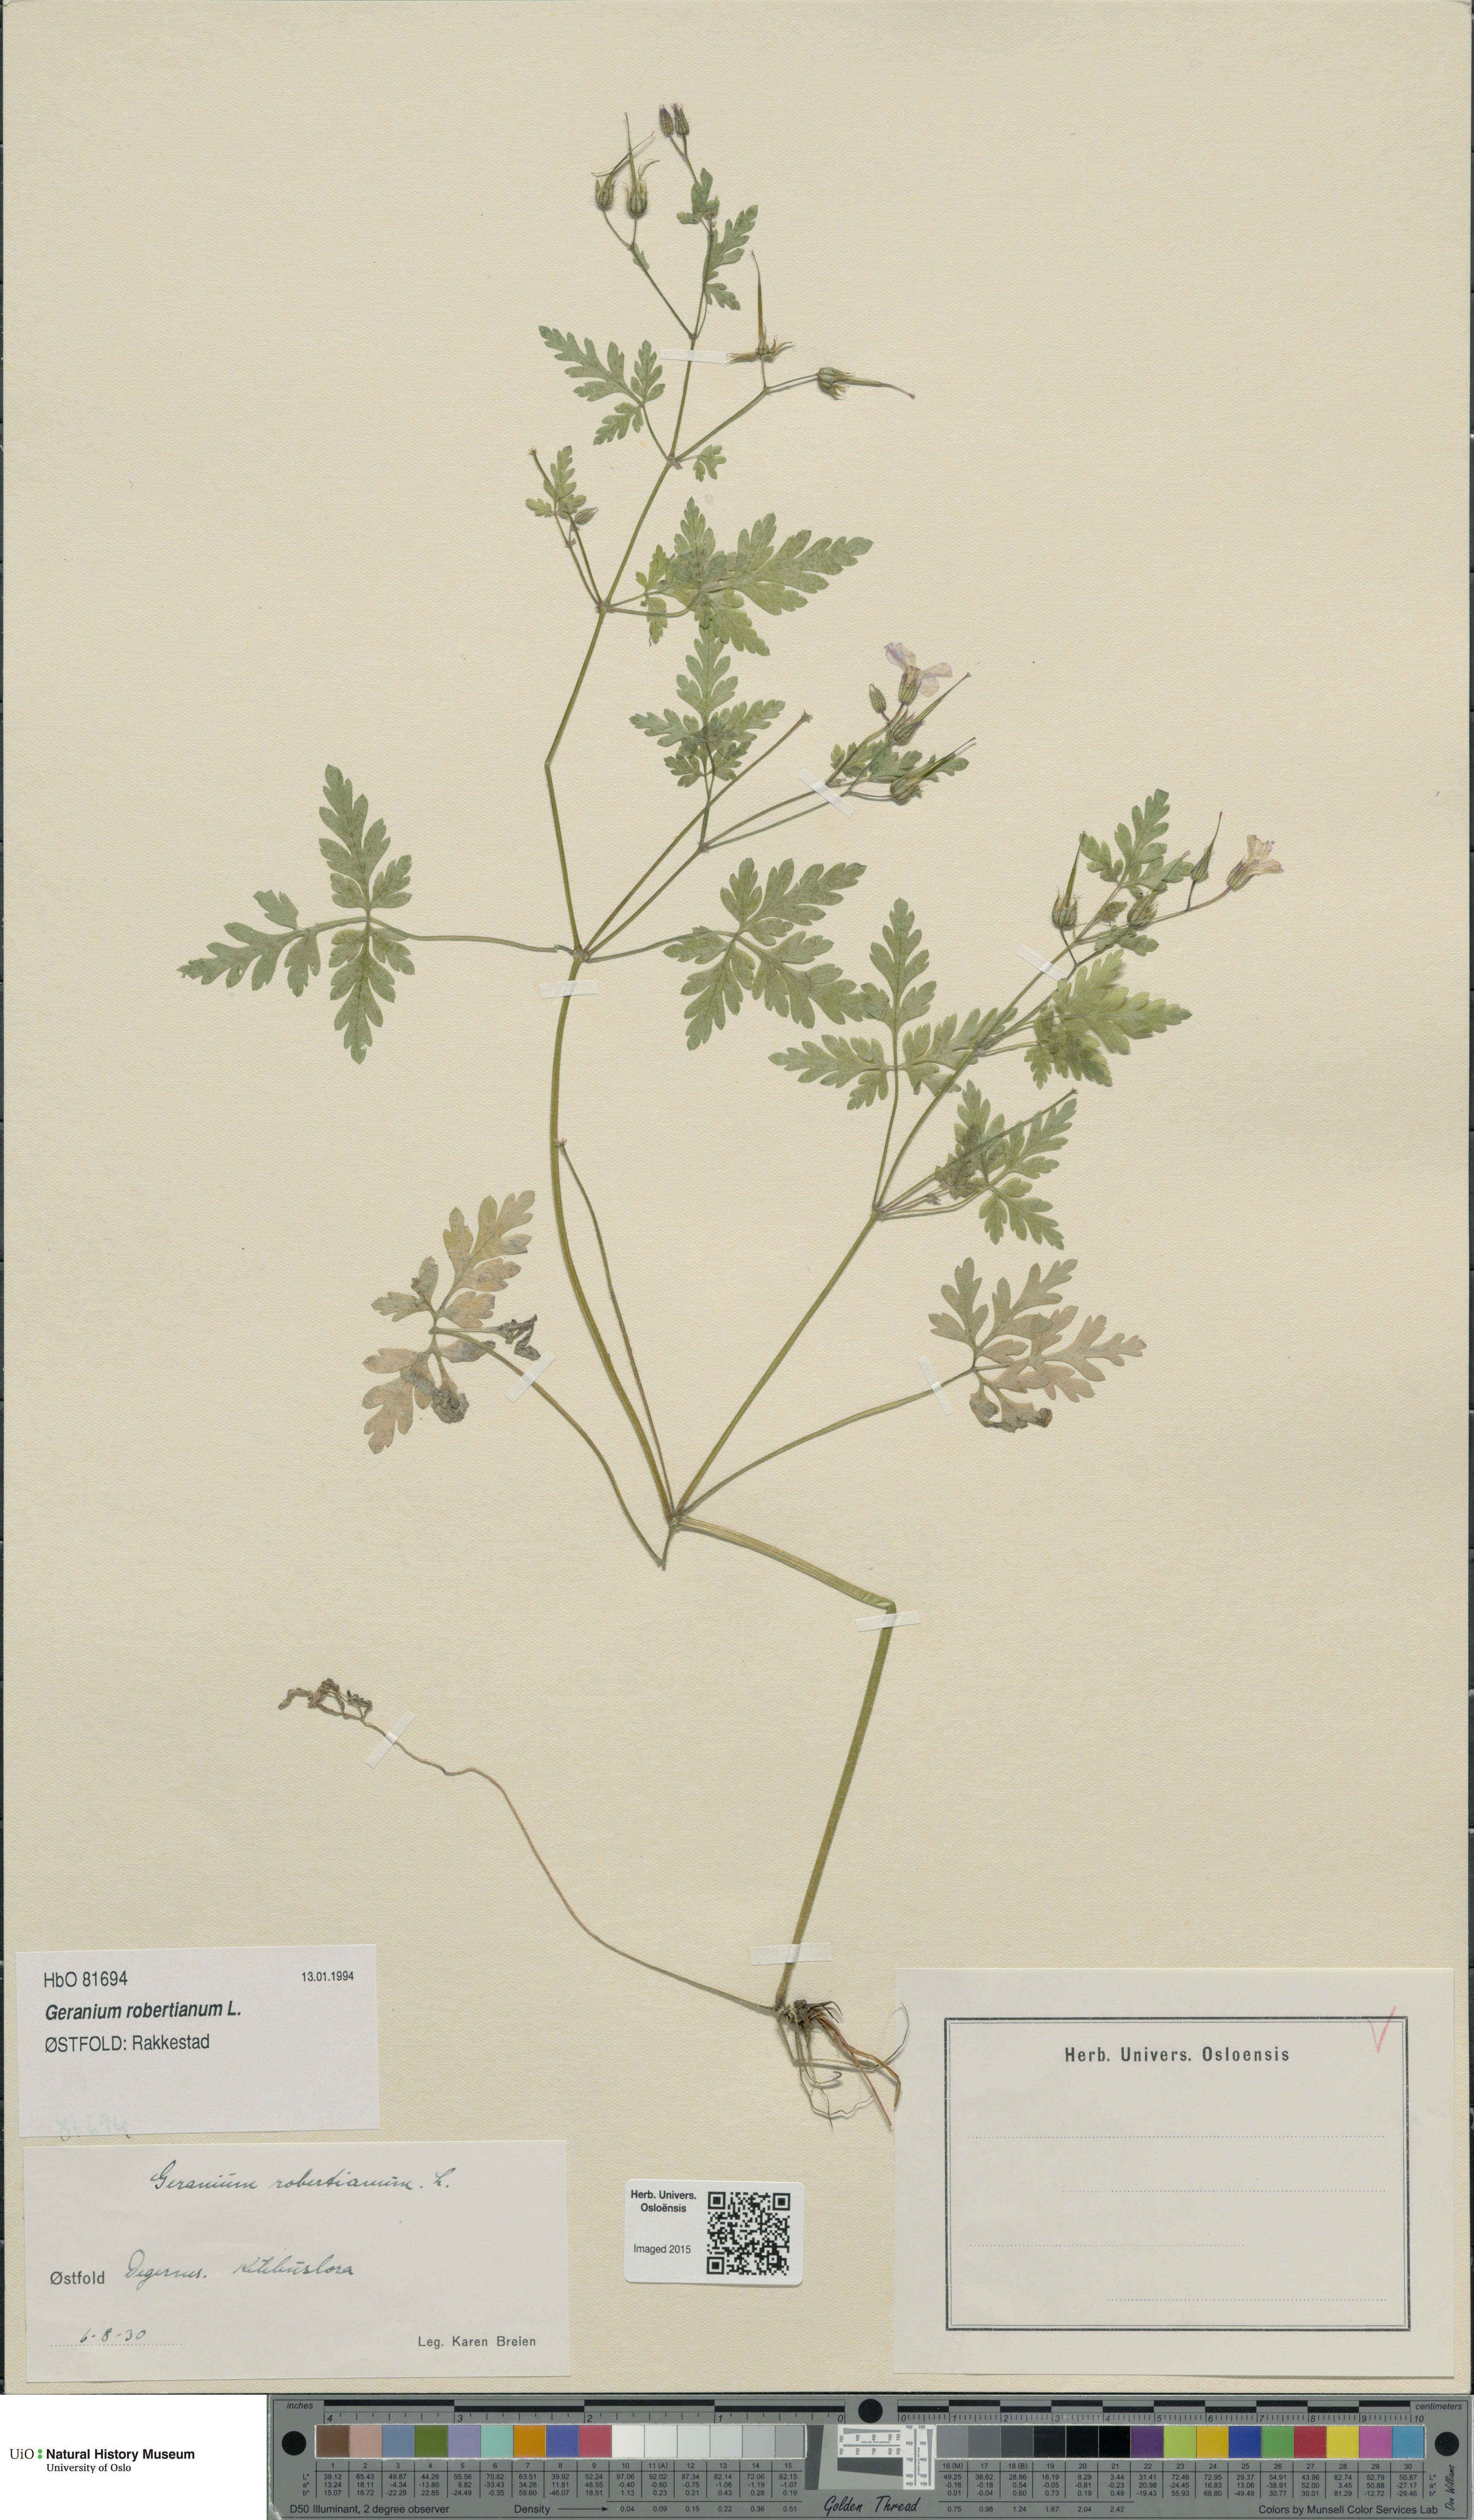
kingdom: Plantae
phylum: Tracheophyta
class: Magnoliopsida
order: Geraniales
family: Geraniaceae
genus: Geranium
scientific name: Geranium robertianum
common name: Herb-robert
